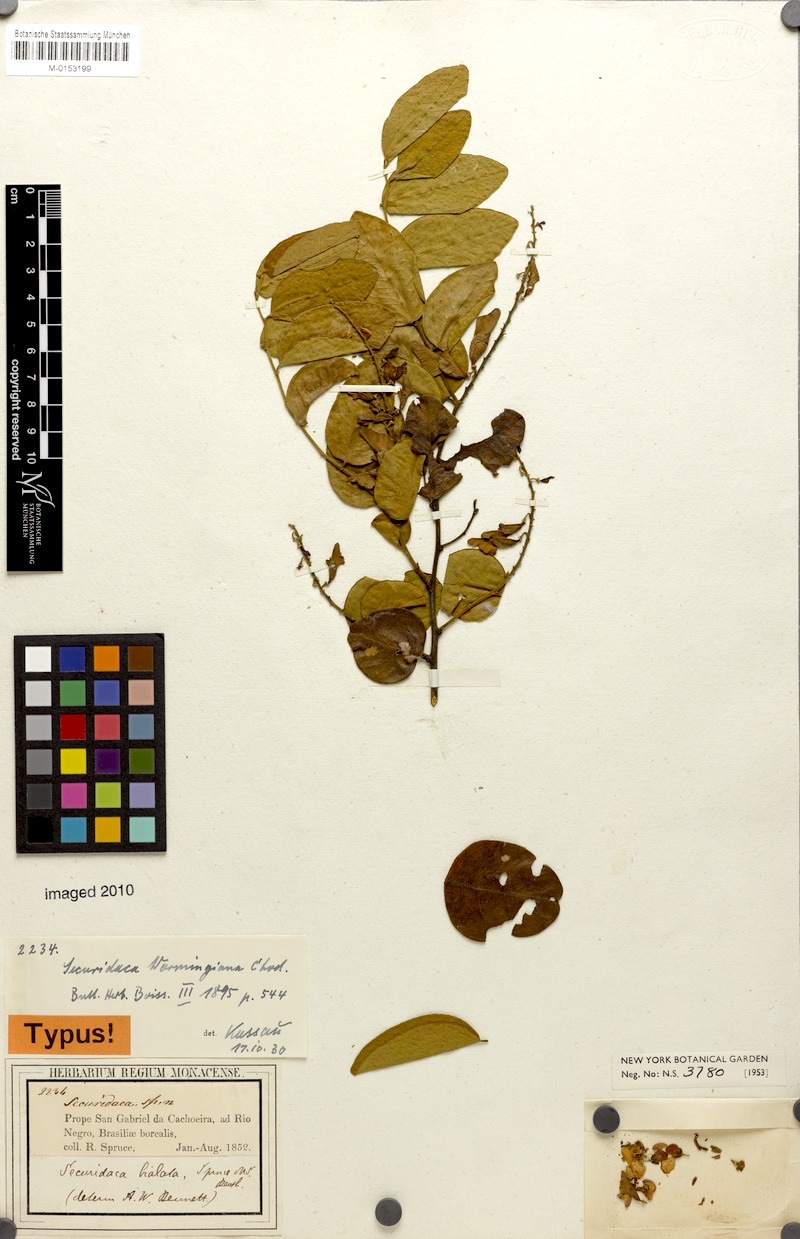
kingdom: Plantae
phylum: Tracheophyta
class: Magnoliopsida
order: Fabales
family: Polygalaceae
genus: Securidaca
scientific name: Securidaca warmingiana
